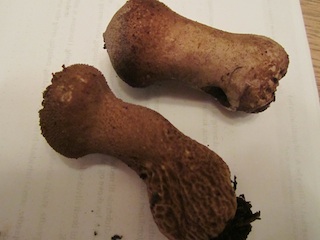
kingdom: Fungi
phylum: Basidiomycota
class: Agaricomycetes
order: Agaricales
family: Lycoperdaceae
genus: Lycoperdon
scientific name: Lycoperdon nigrescens
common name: sortagtig støvbold
